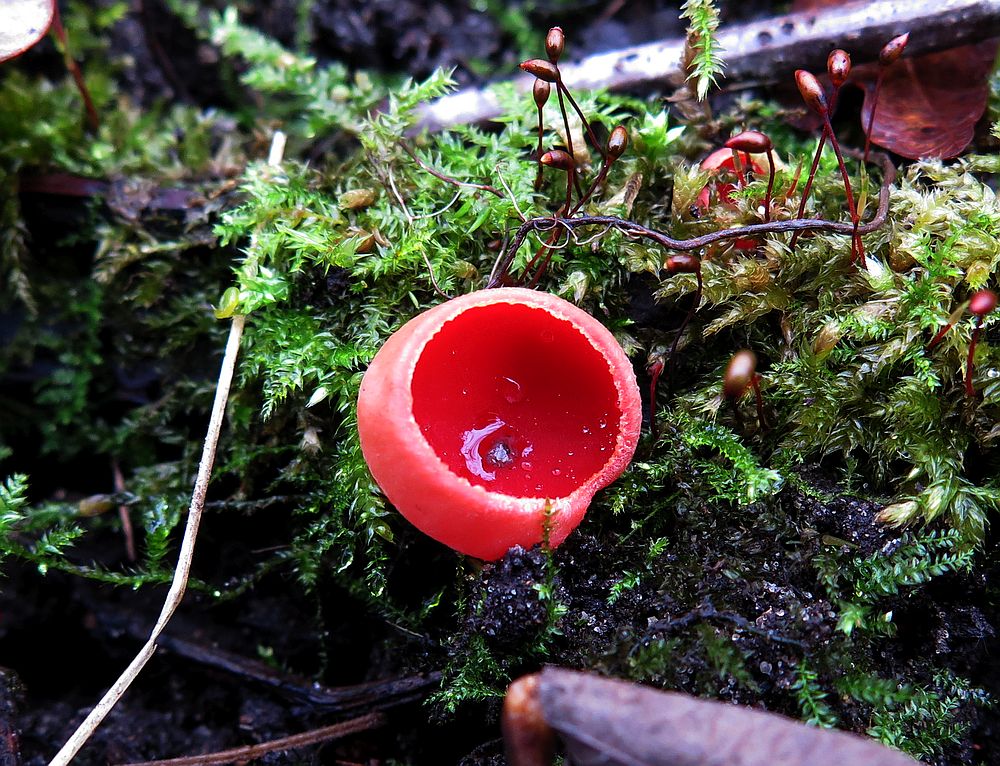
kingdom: Fungi
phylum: Ascomycota
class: Pezizomycetes
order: Pezizales
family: Sarcoscyphaceae
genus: Sarcoscypha
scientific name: Sarcoscypha austriaca
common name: krølhåret pragtbæger
